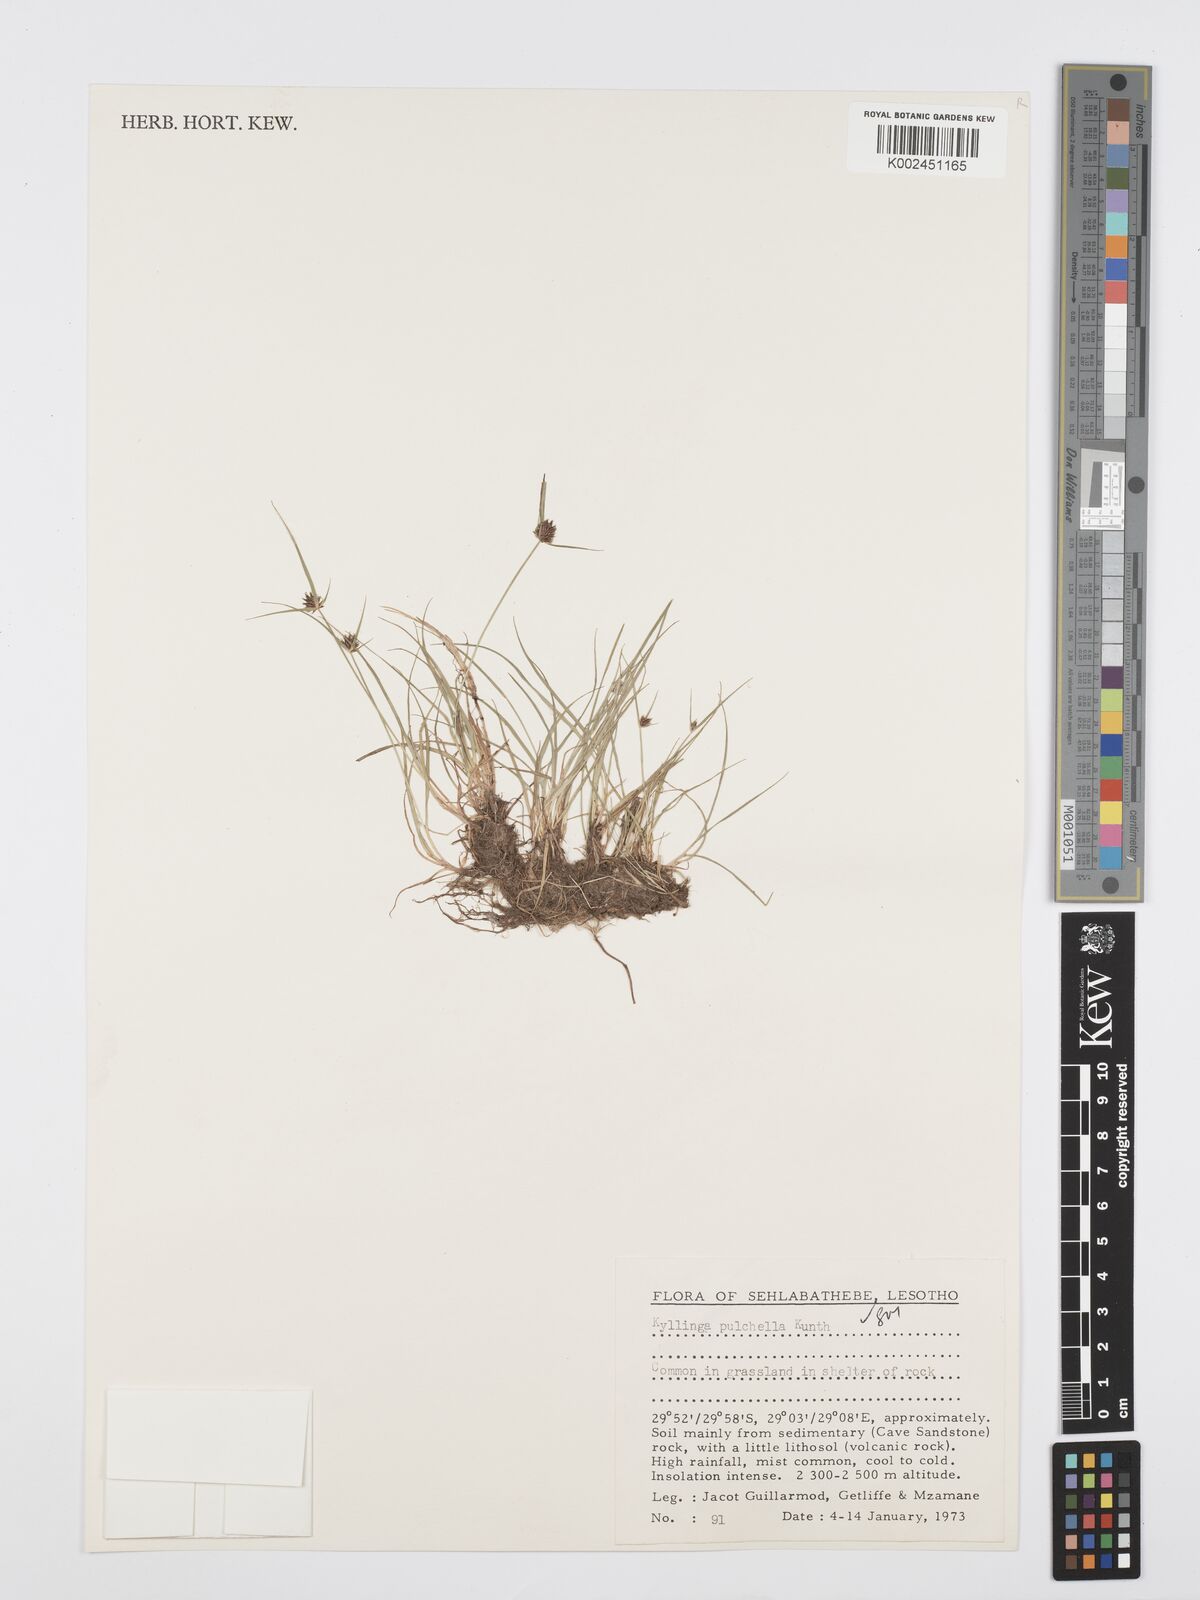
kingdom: Plantae
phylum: Tracheophyta
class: Liliopsida
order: Poales
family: Cyperaceae
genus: Cyperus
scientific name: Cyperus bracheilema
